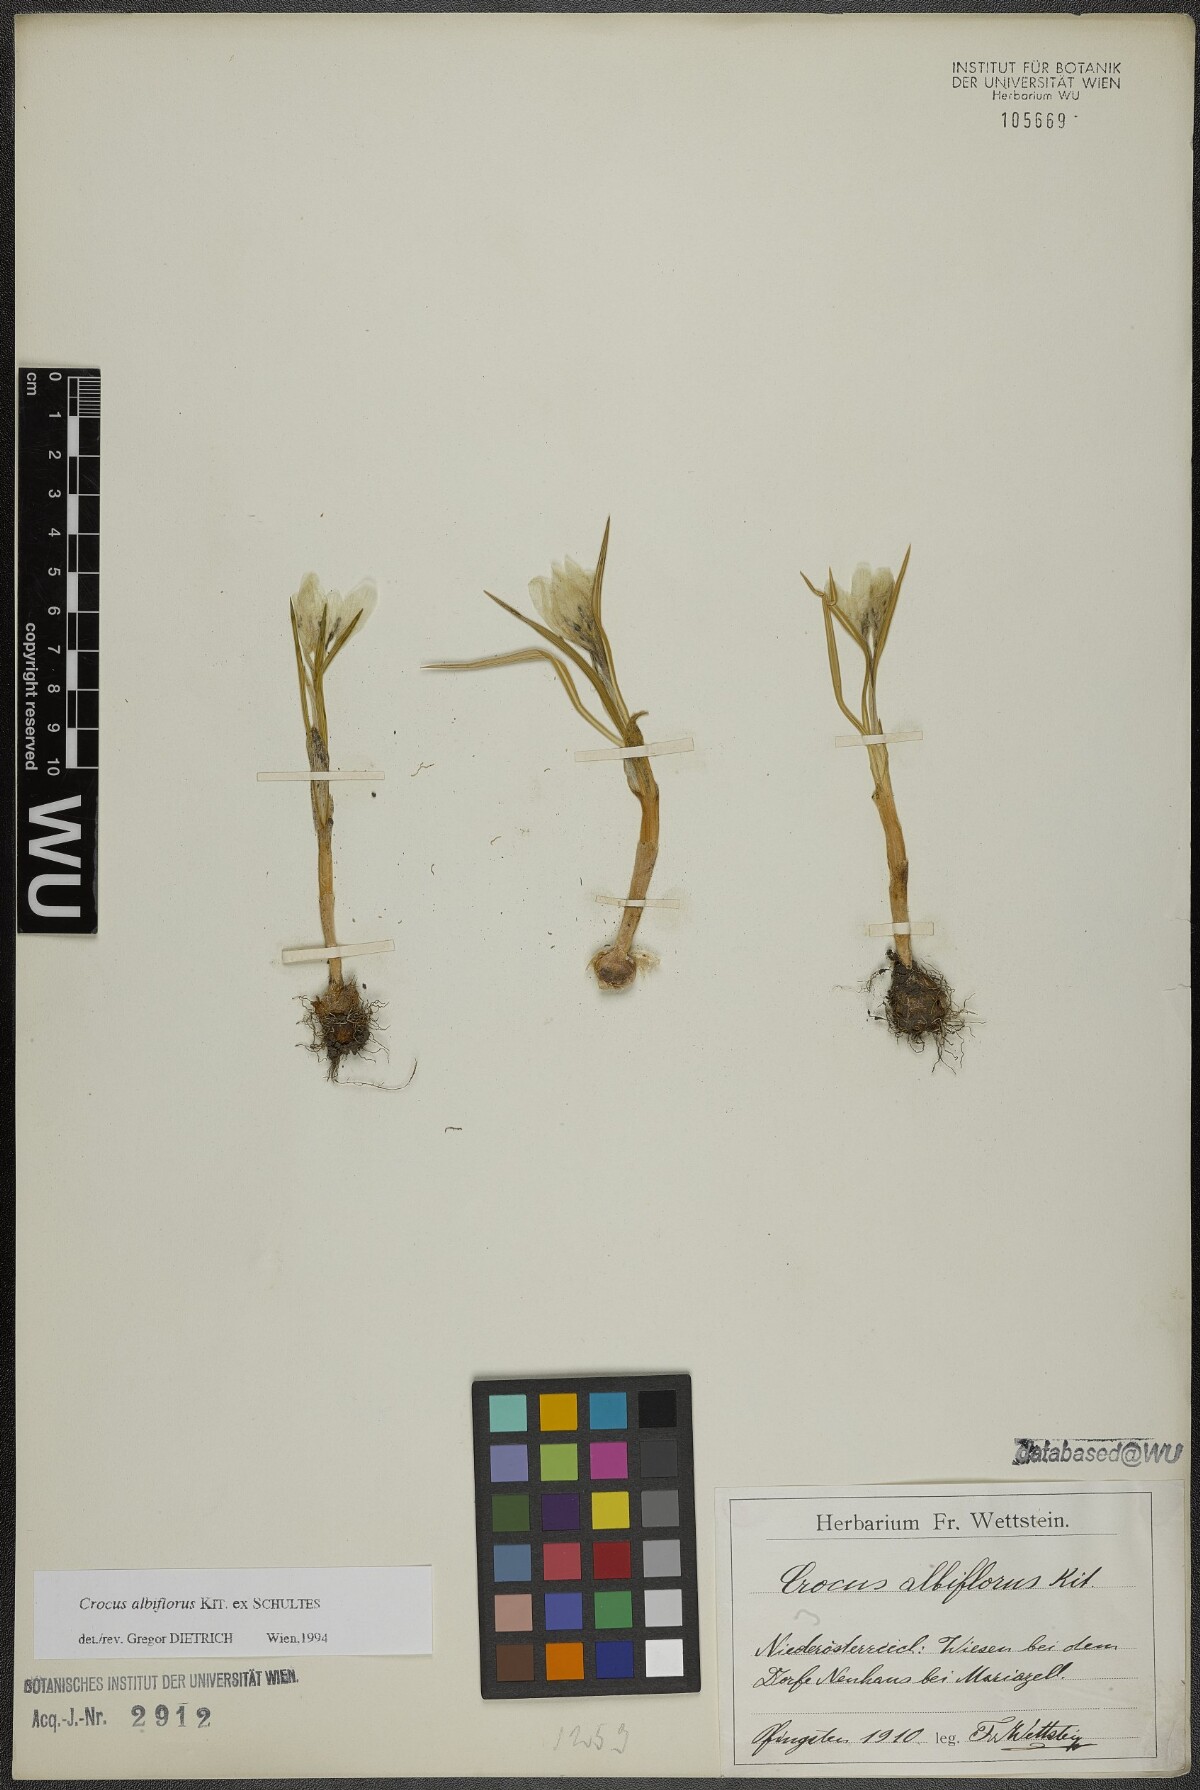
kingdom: Plantae
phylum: Tracheophyta
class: Liliopsida
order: Asparagales
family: Iridaceae
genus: Crocus
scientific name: Crocus vernus
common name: Spring crocus
